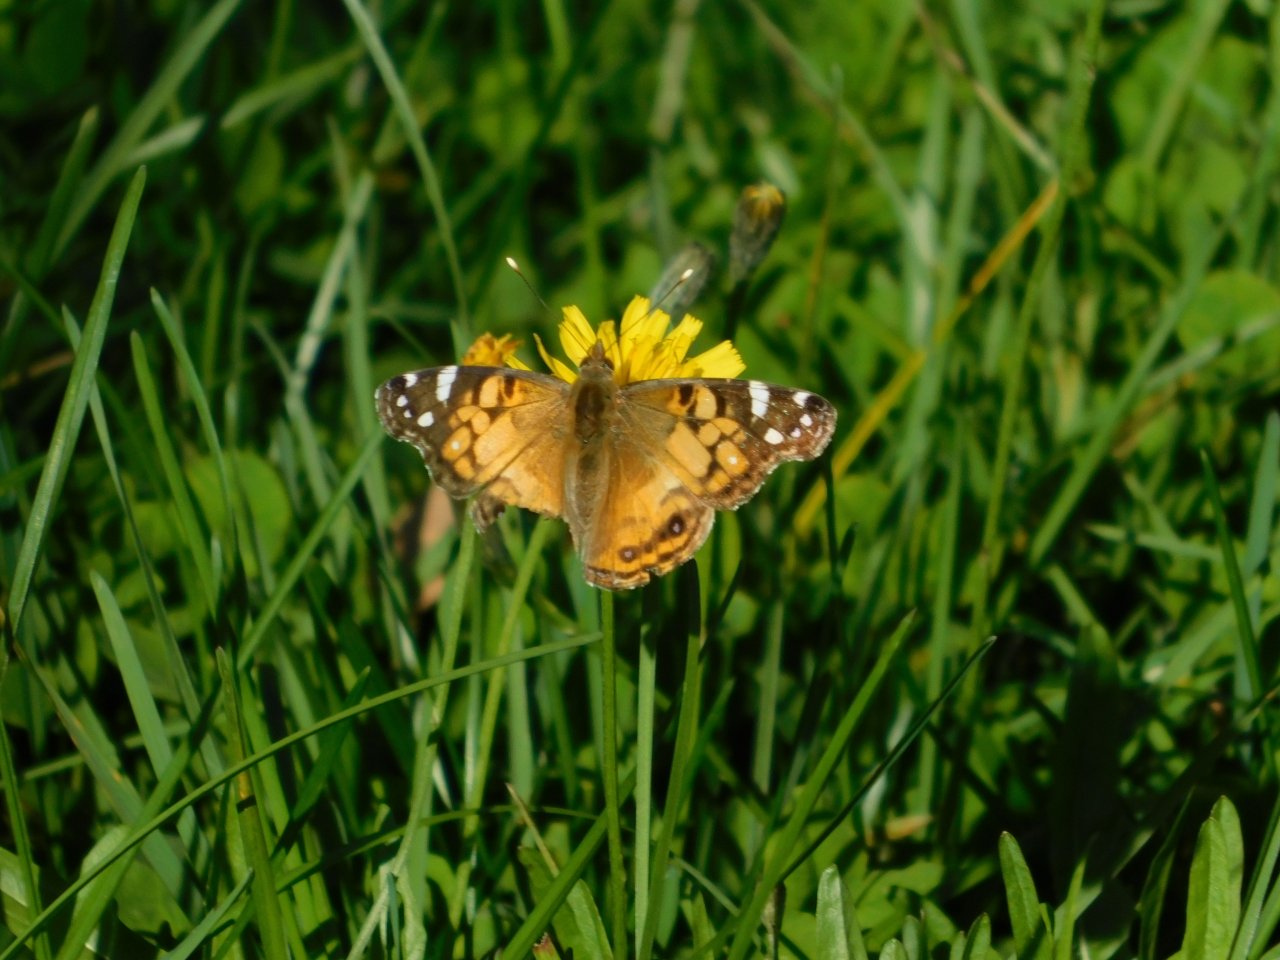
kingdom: Animalia
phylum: Arthropoda
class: Insecta
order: Lepidoptera
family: Nymphalidae
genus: Vanessa
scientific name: Vanessa virginiensis
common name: American Lady
